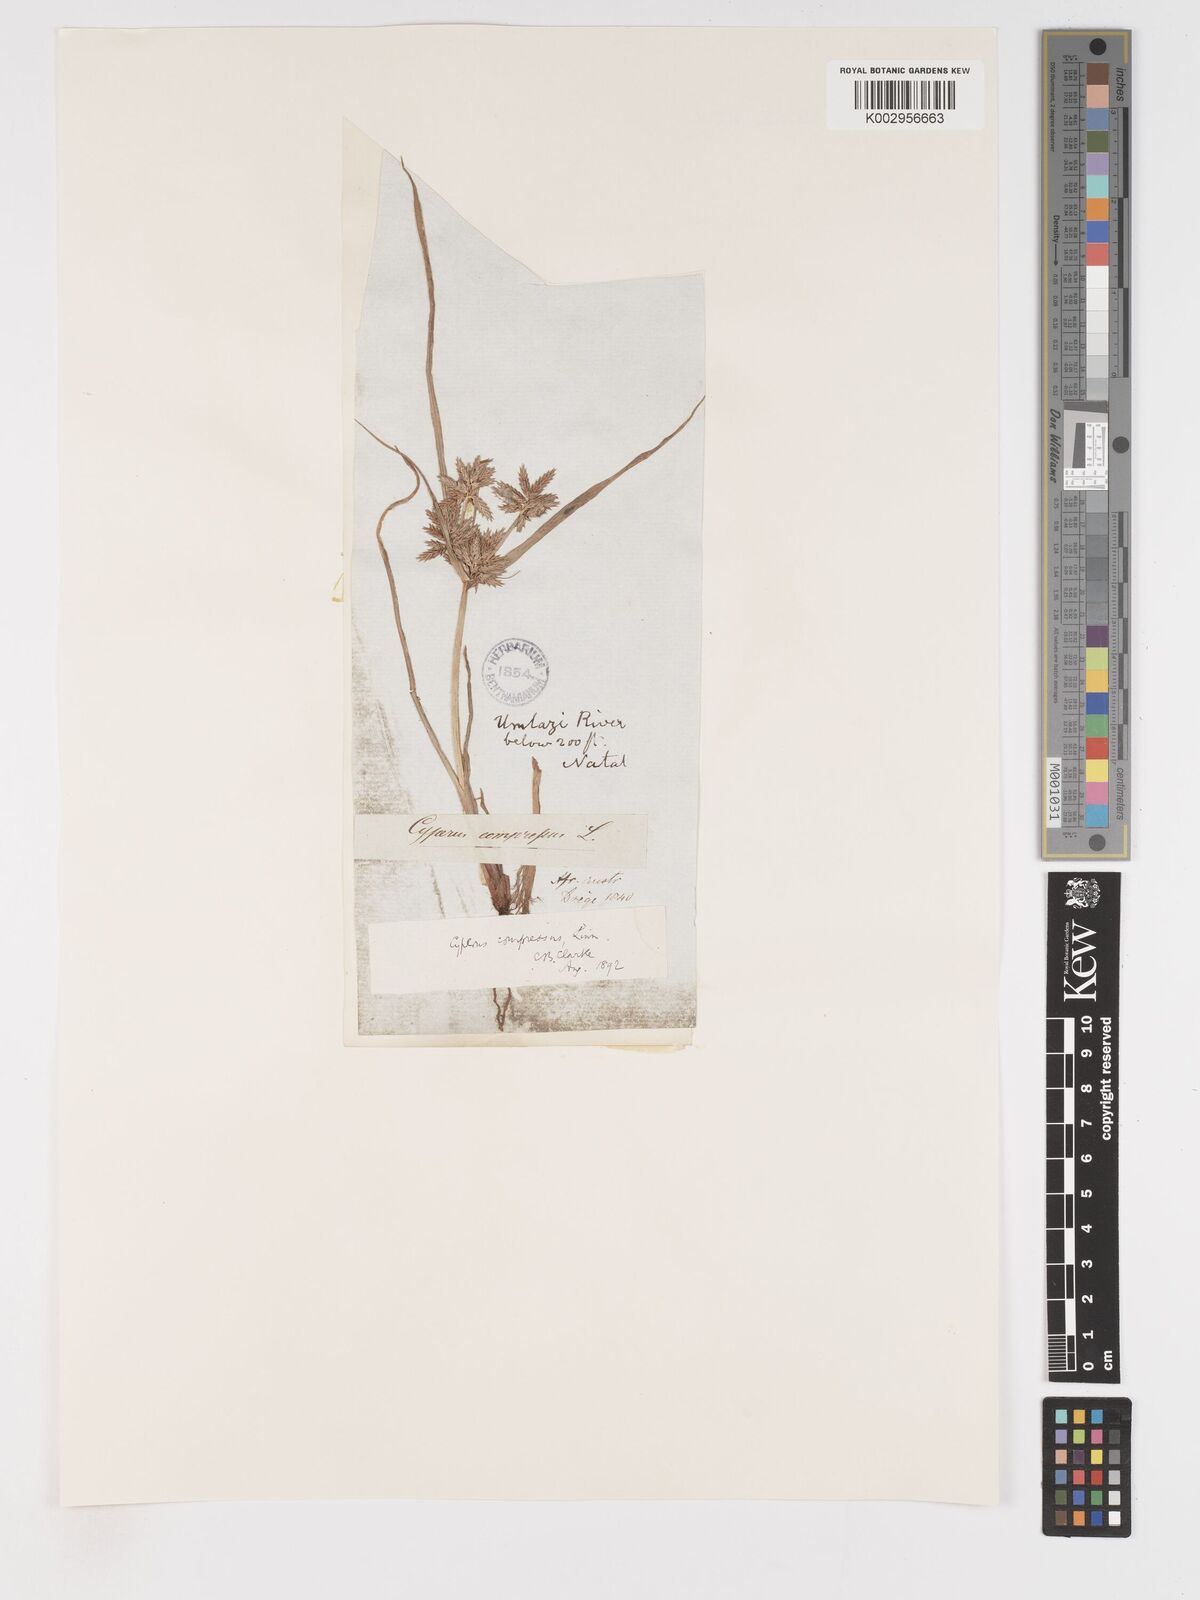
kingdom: Plantae
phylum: Tracheophyta
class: Liliopsida
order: Poales
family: Cyperaceae
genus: Cyperus
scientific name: Cyperus compressus
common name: Poorland flatsedge
